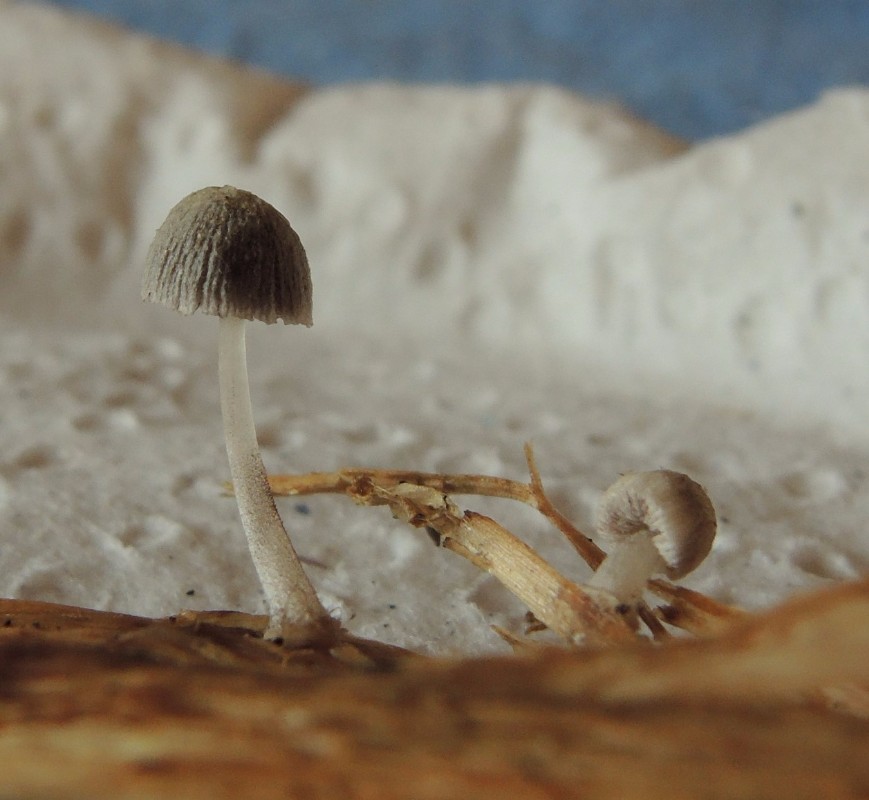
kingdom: Fungi
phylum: Basidiomycota
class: Agaricomycetes
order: Agaricales
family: Psathyrellaceae
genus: Coprinopsis
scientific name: Coprinopsis kubickae
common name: amfibie-blækhat
